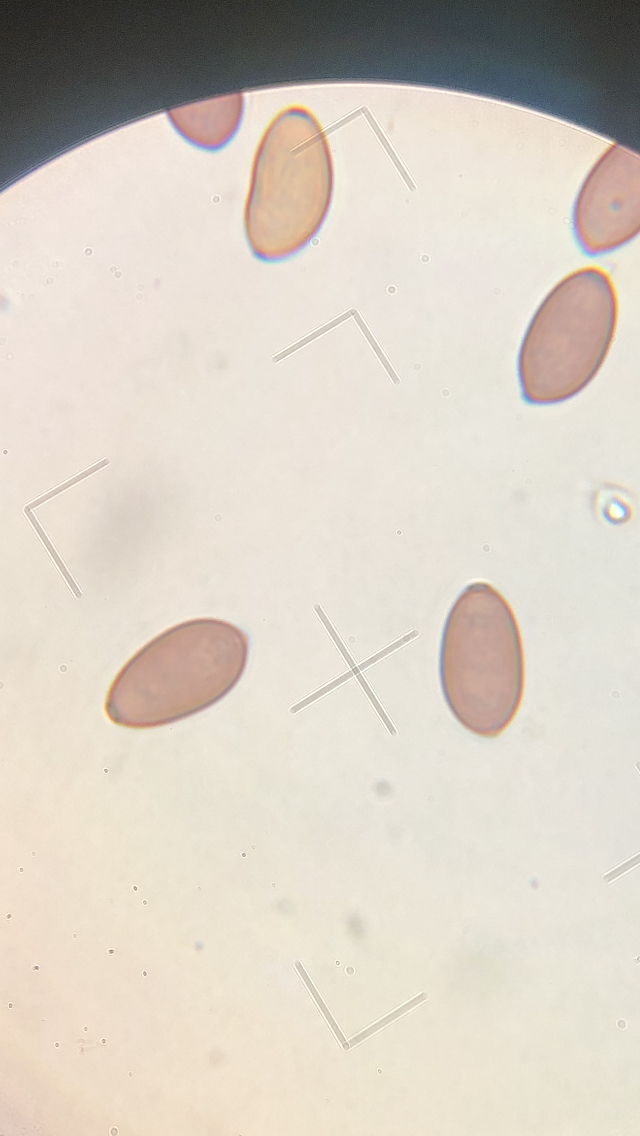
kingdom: Fungi
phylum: Basidiomycota
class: Agaricomycetes
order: Agaricales
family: Strophariaceae
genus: Protostropharia
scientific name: Protostropharia semiglobata
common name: halvkugleformet bredblad
